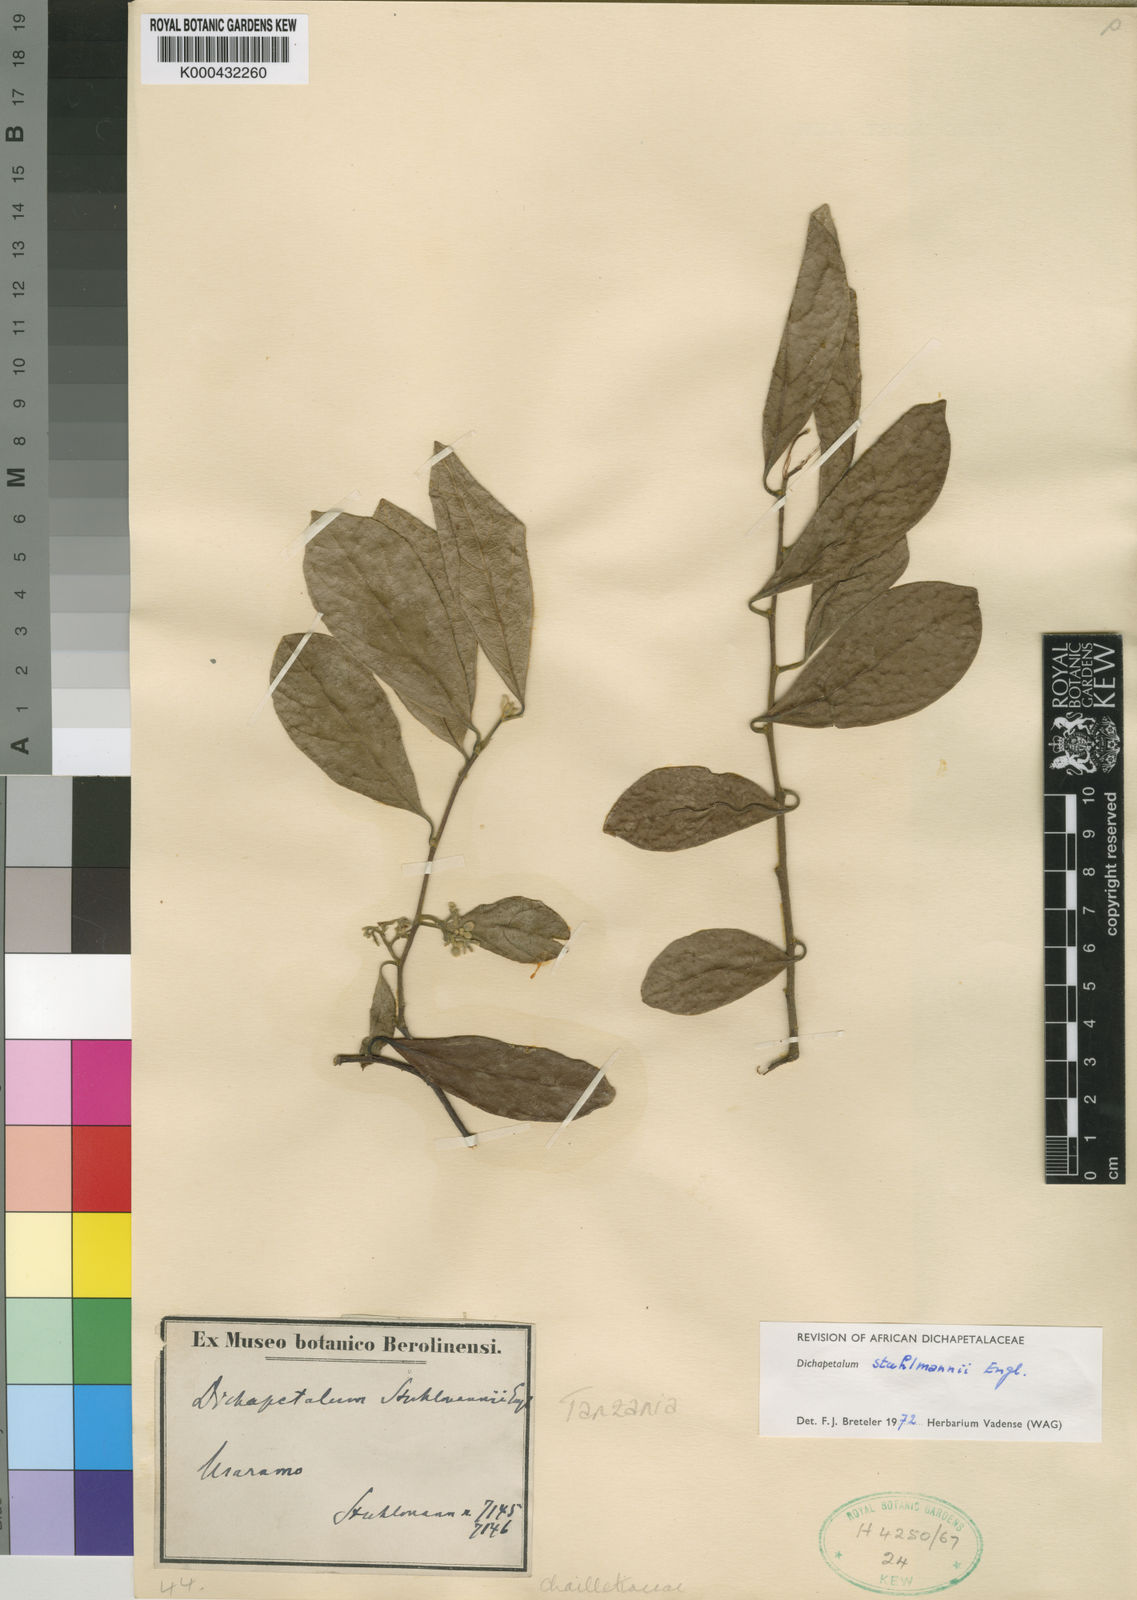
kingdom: Plantae
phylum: Tracheophyta
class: Magnoliopsida
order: Malpighiales
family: Dichapetalaceae
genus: Dichapetalum
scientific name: Dichapetalum stuhlmannii
